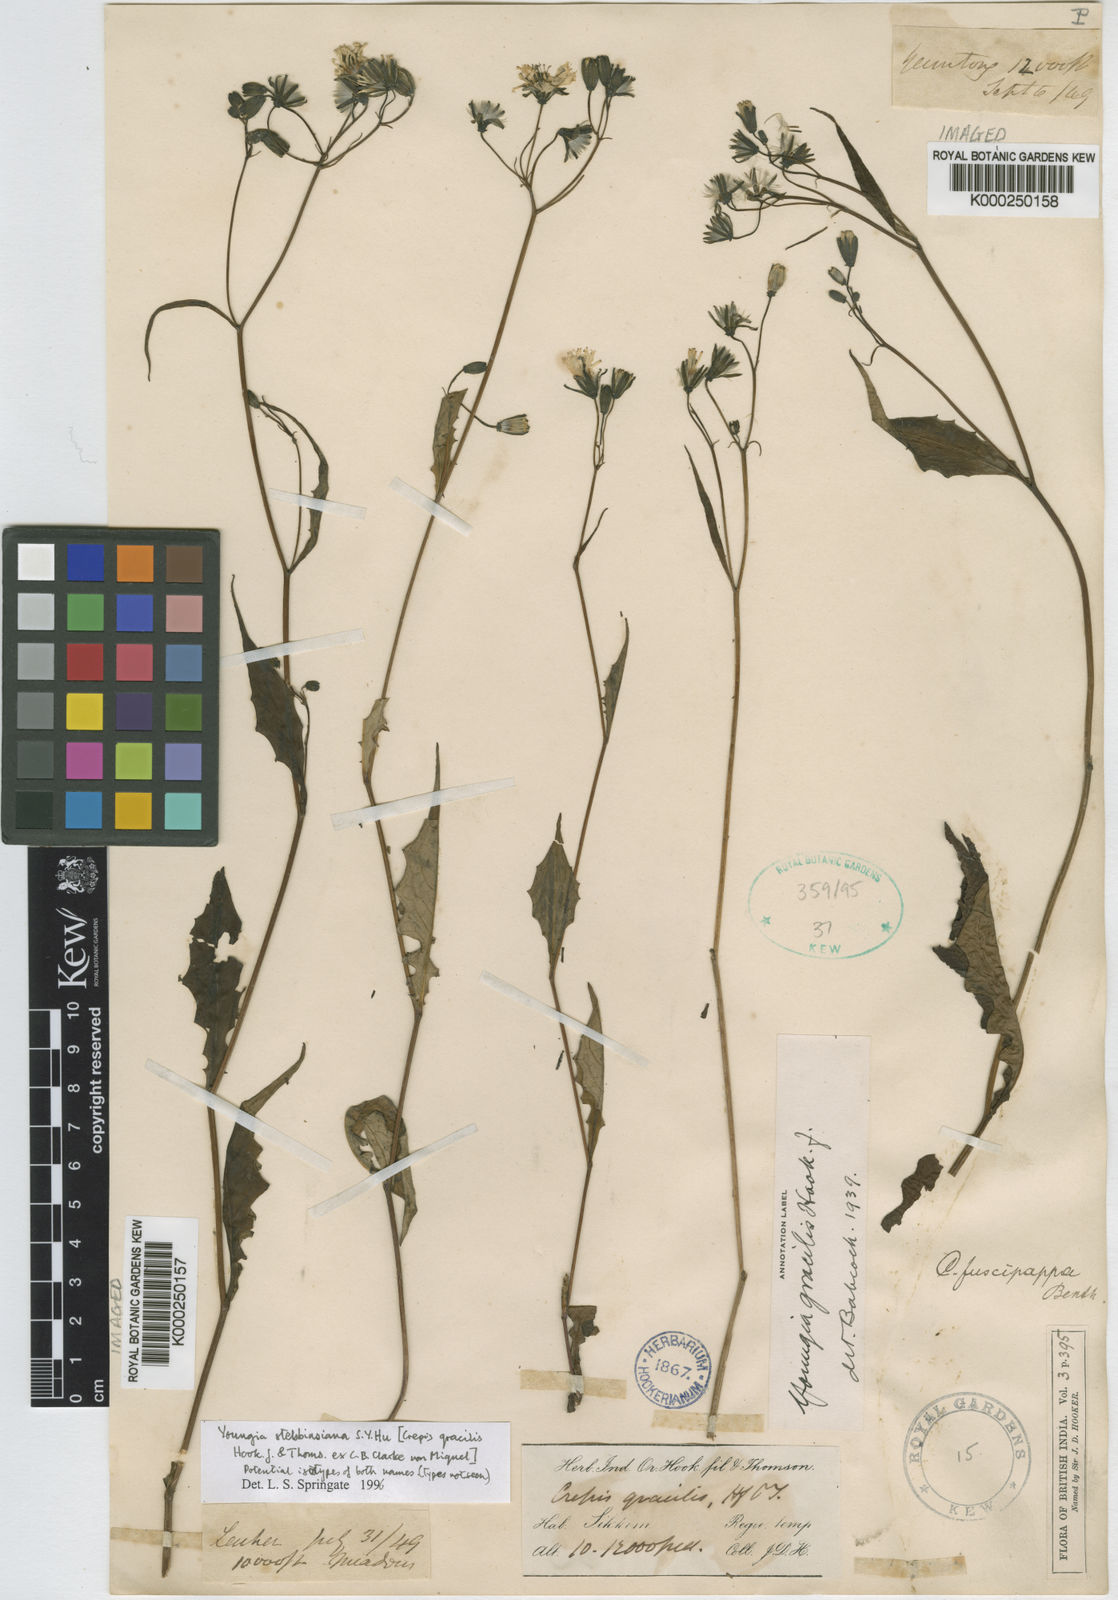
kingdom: Plantae
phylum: Tracheophyta
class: Magnoliopsida
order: Asterales
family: Asteraceae
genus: Youngia
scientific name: Youngia gracilipes
